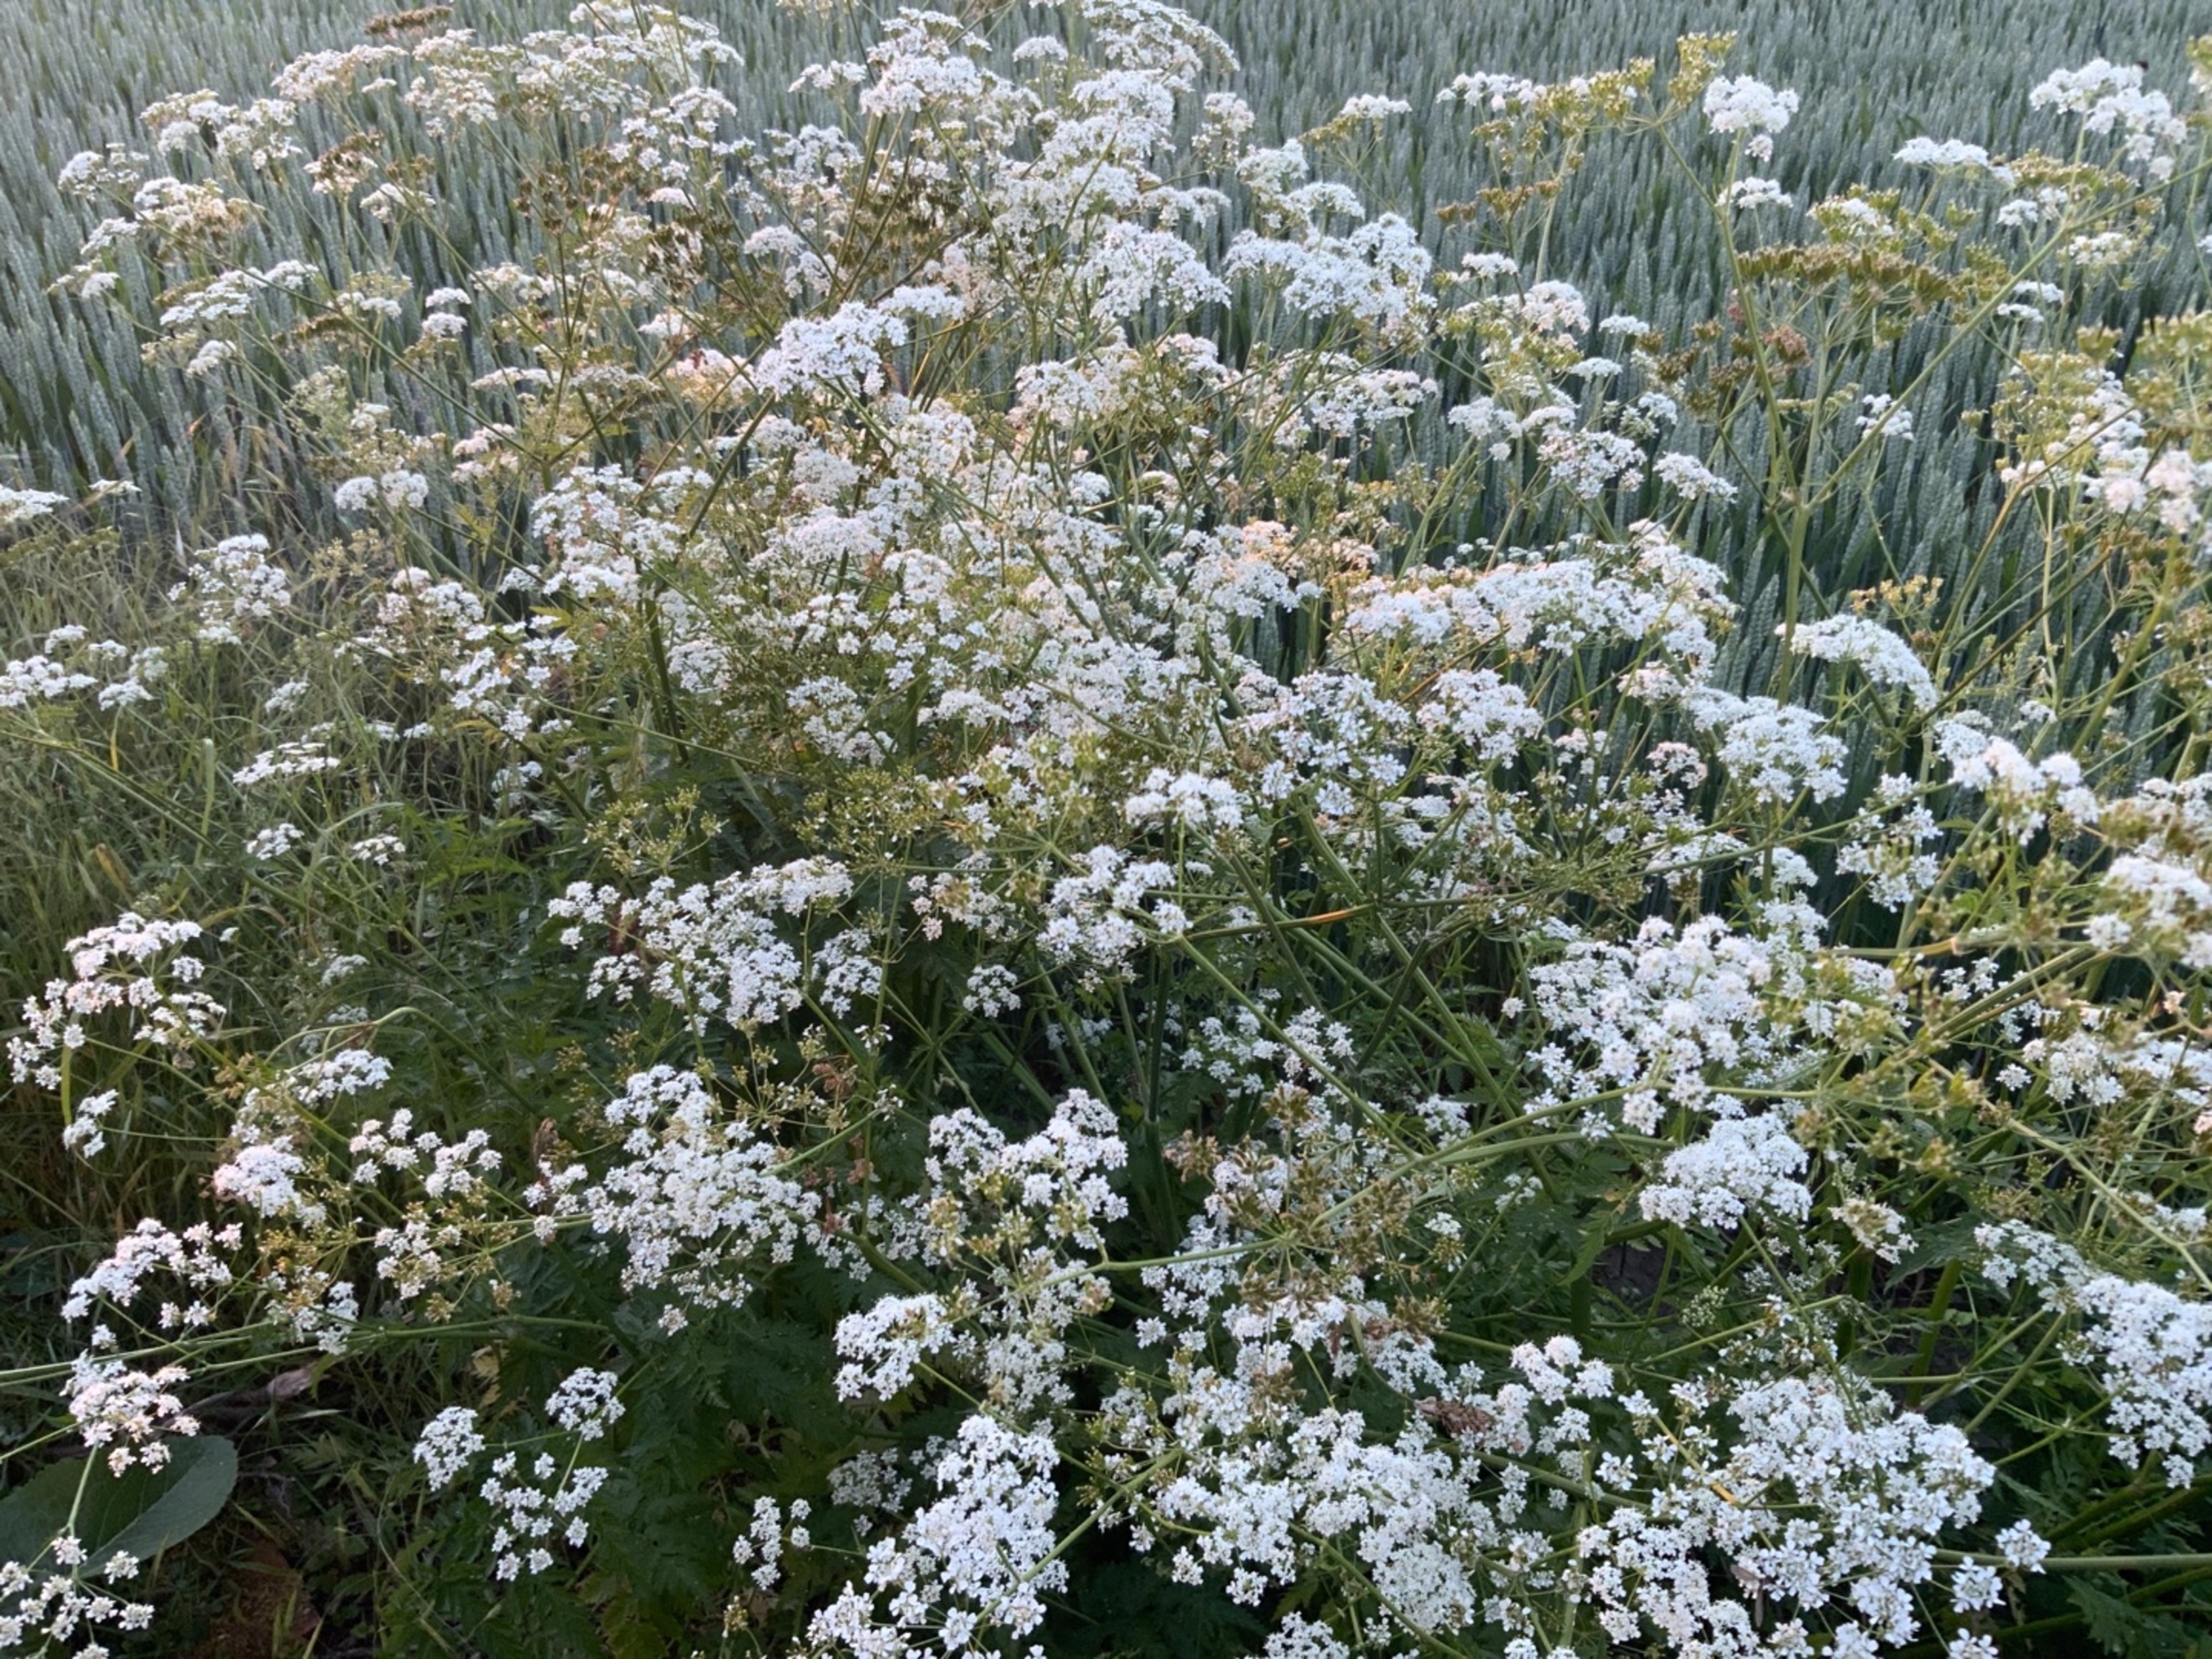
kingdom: Plantae
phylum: Tracheophyta
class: Magnoliopsida
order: Apiales
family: Apiaceae
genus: Anthriscus
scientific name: Anthriscus sylvestris
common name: Vild kørvel
